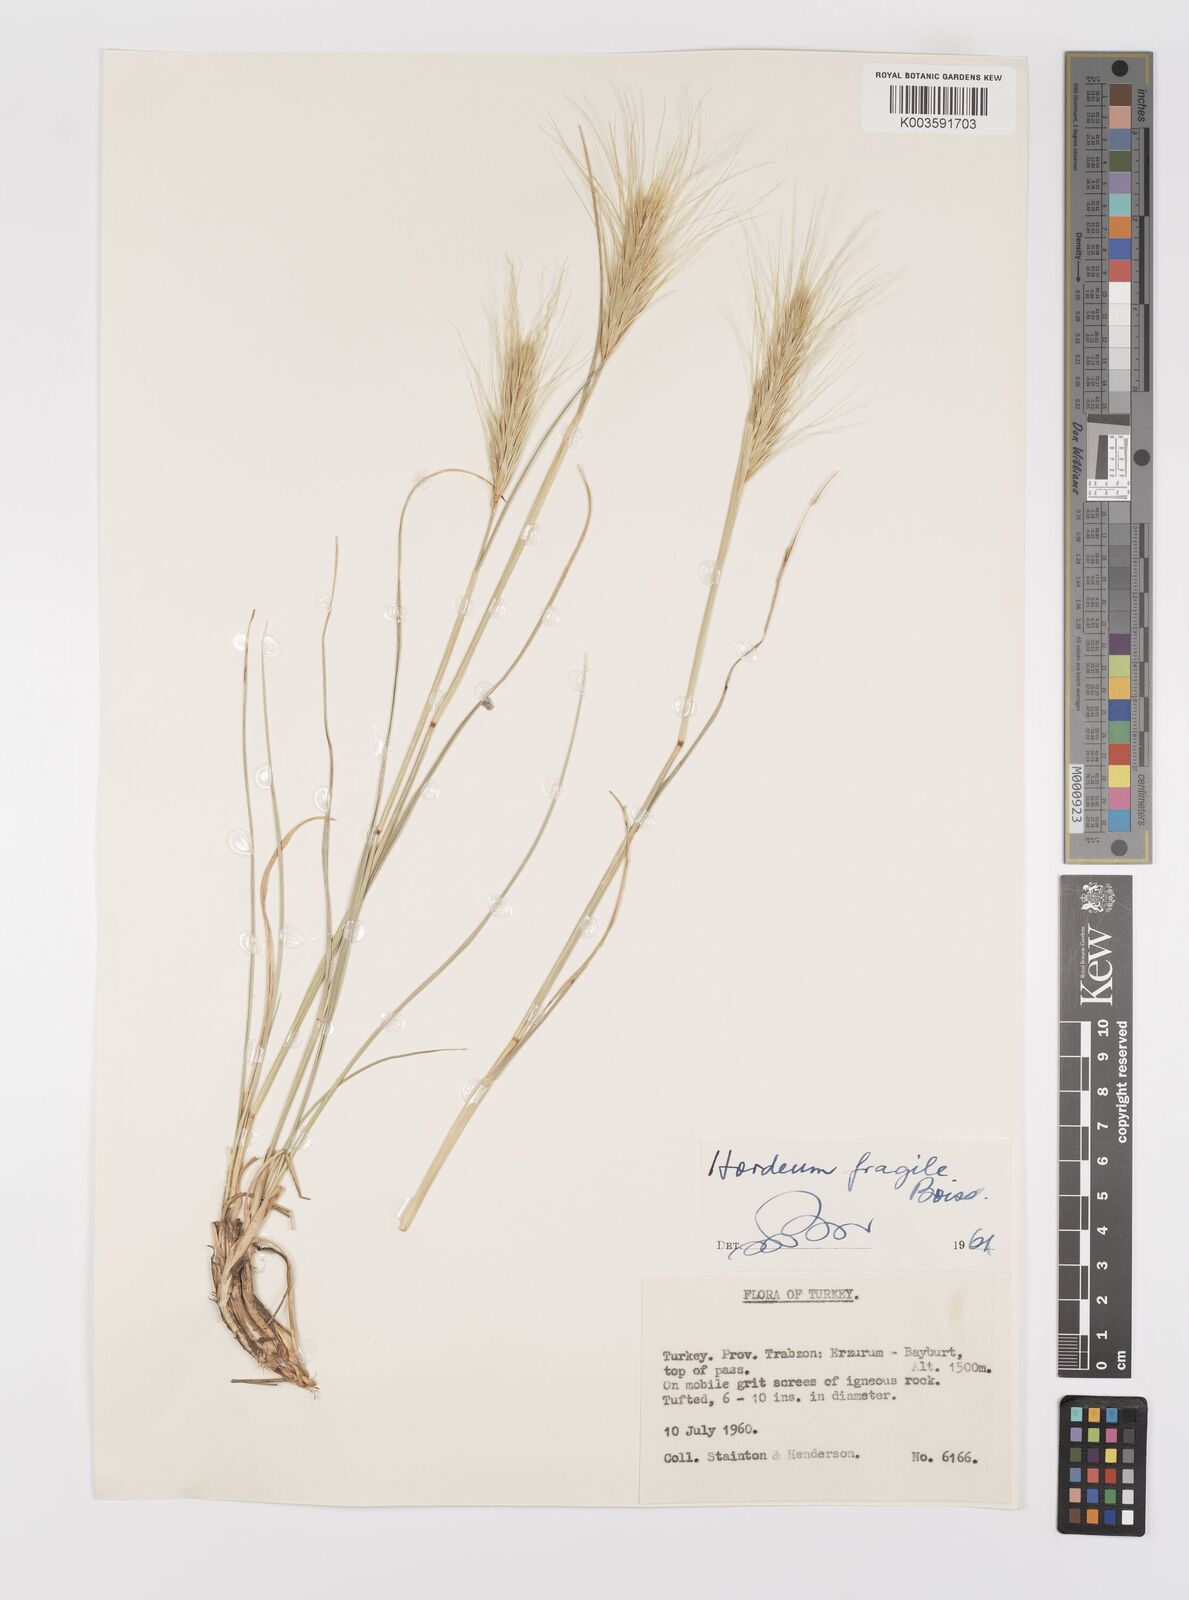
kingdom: Plantae
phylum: Tracheophyta
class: Liliopsida
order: Poales
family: Poaceae
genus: Psathyrostachys
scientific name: Psathyrostachys fragilis
